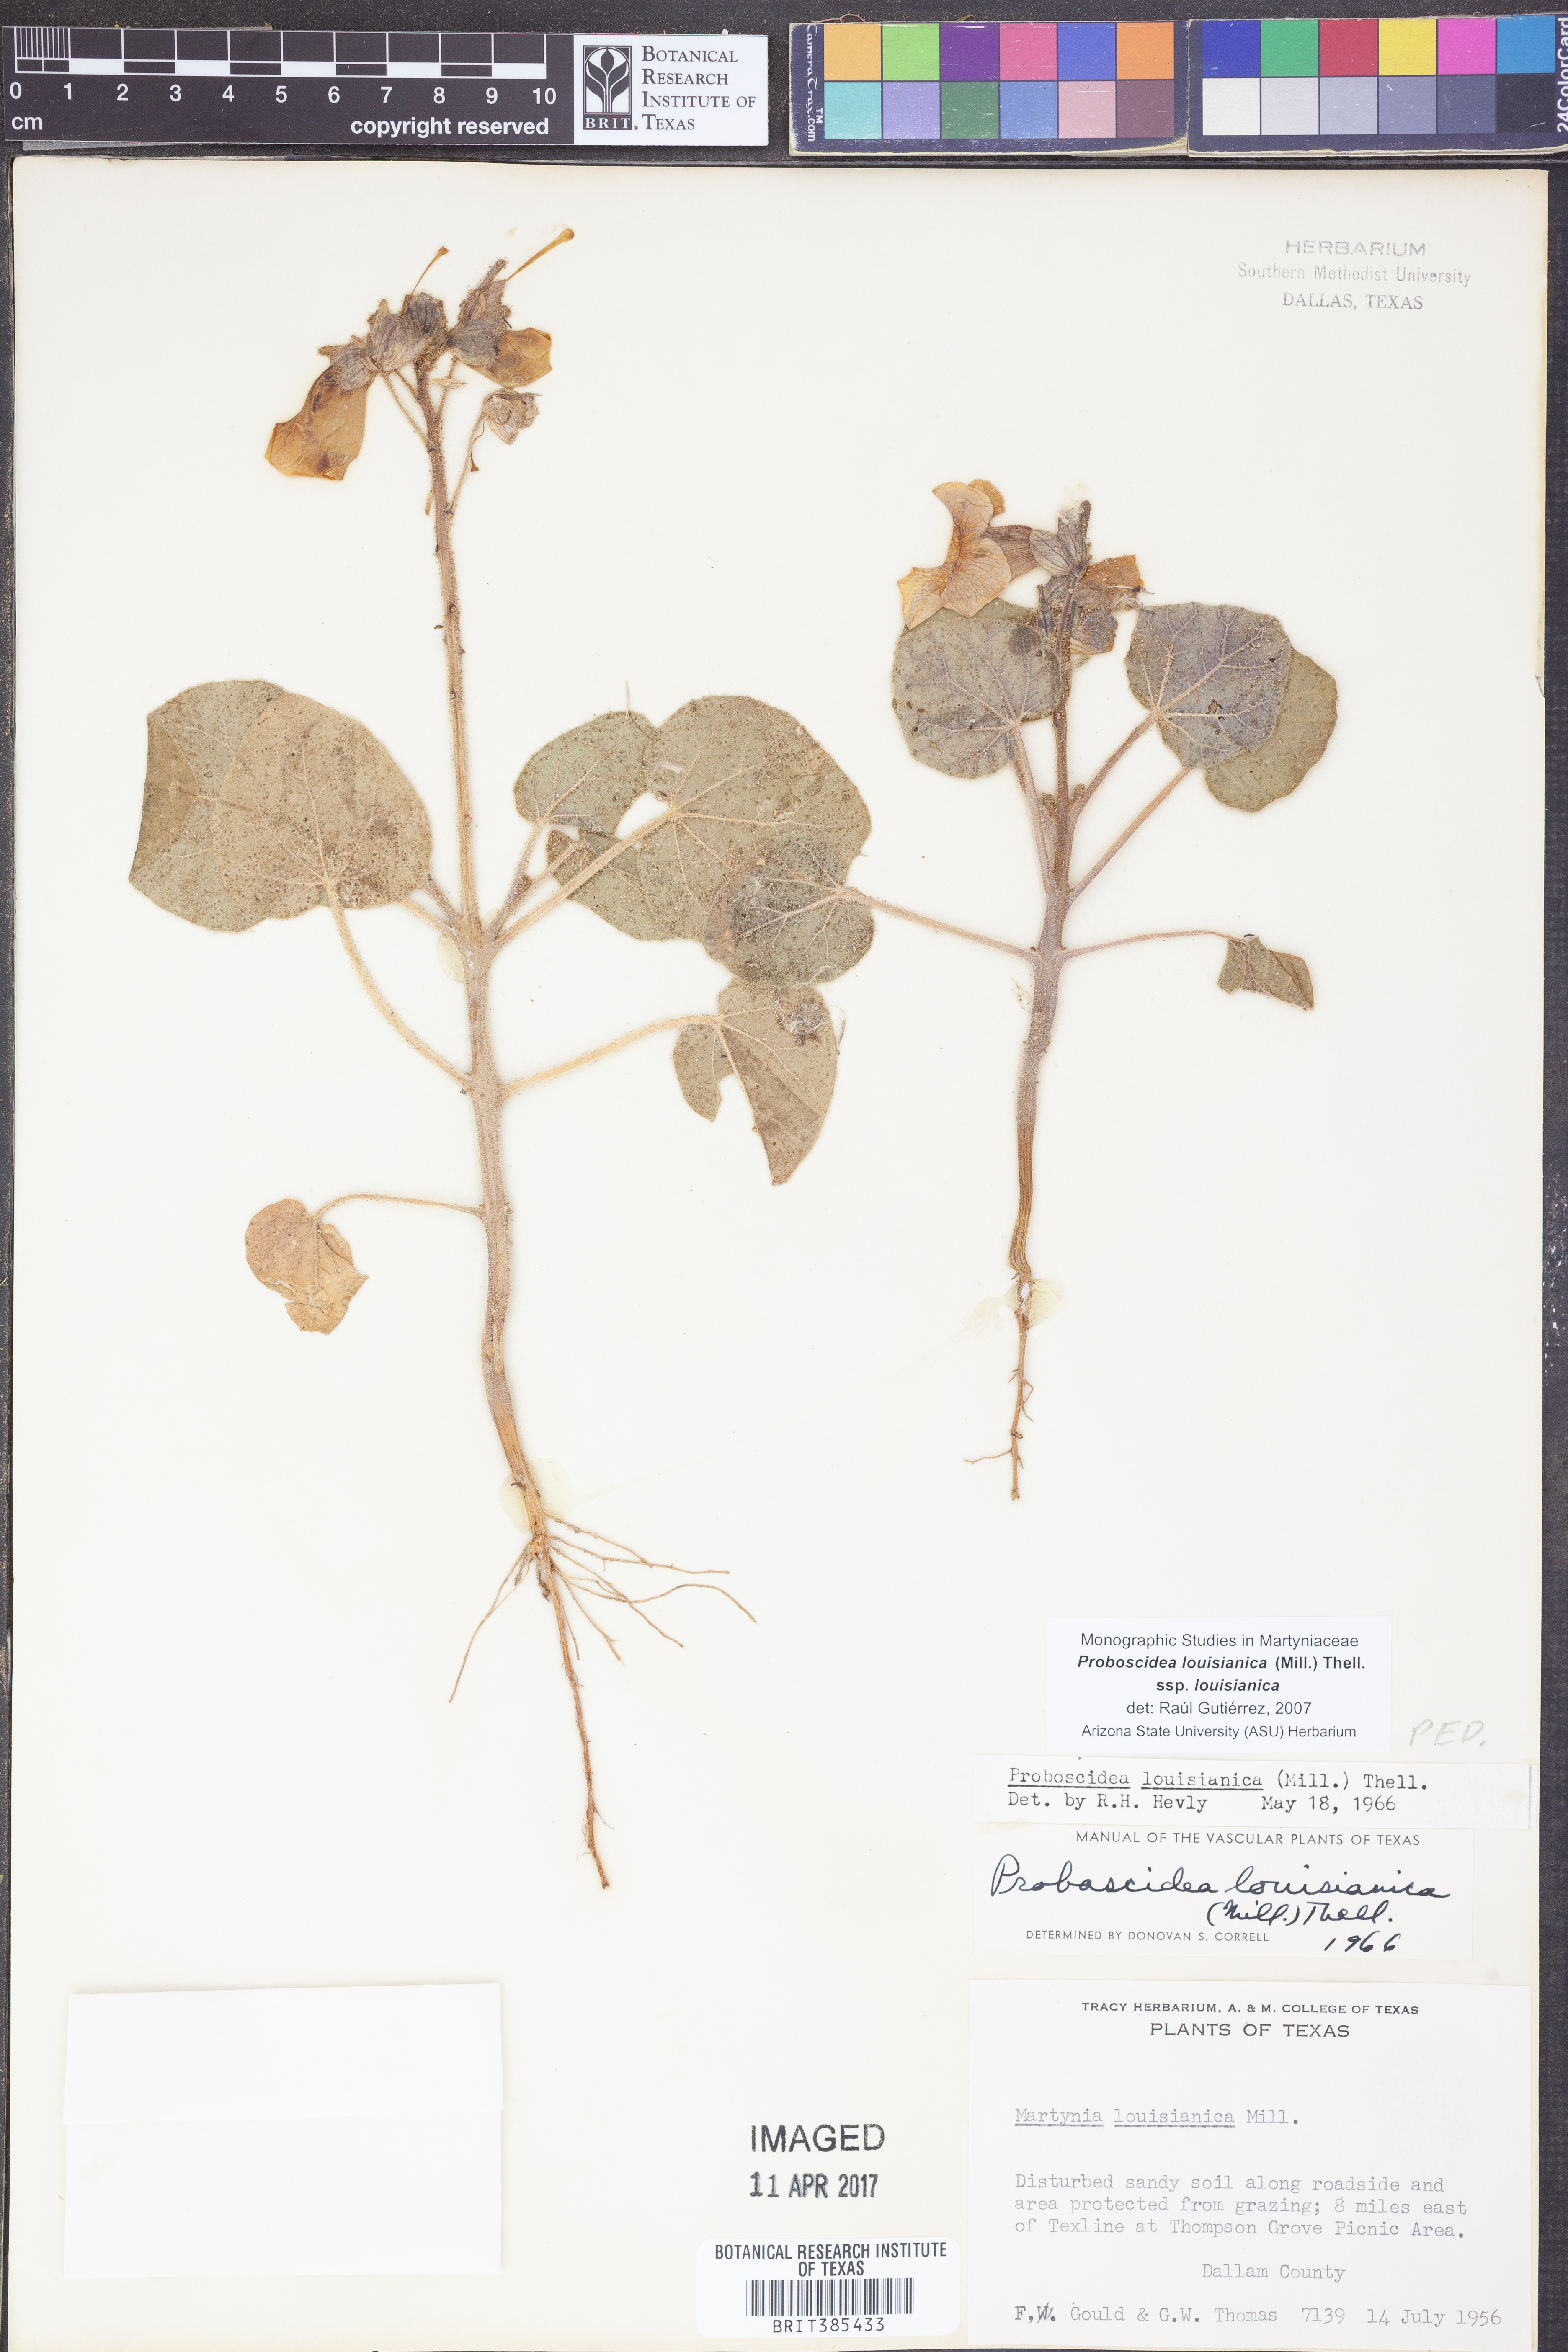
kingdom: Plantae
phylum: Tracheophyta
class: Magnoliopsida
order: Lamiales
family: Martyniaceae
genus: Proboscidea
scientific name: Proboscidea louisianica
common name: Elephant tusks
